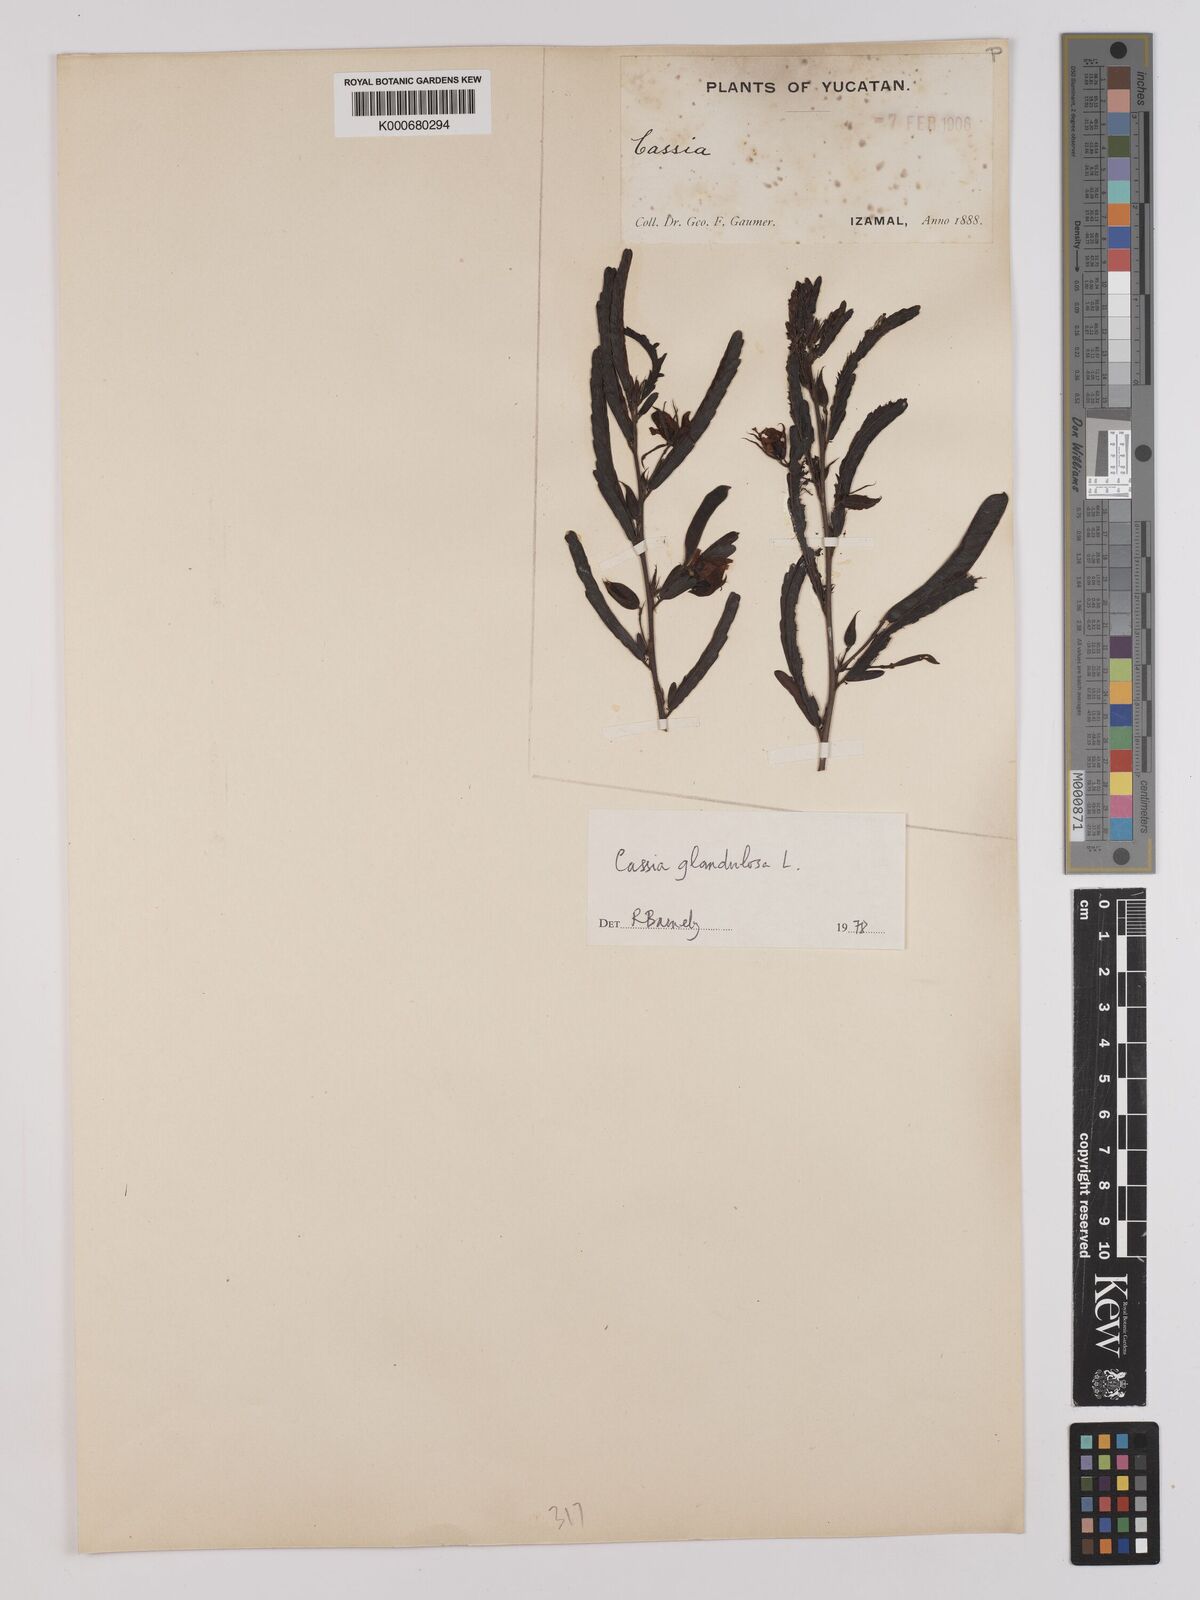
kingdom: Plantae
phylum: Tracheophyta
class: Magnoliopsida
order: Fabales
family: Fabaceae
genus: Chamaecrista
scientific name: Chamaecrista glandulosa
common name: Wild peas
